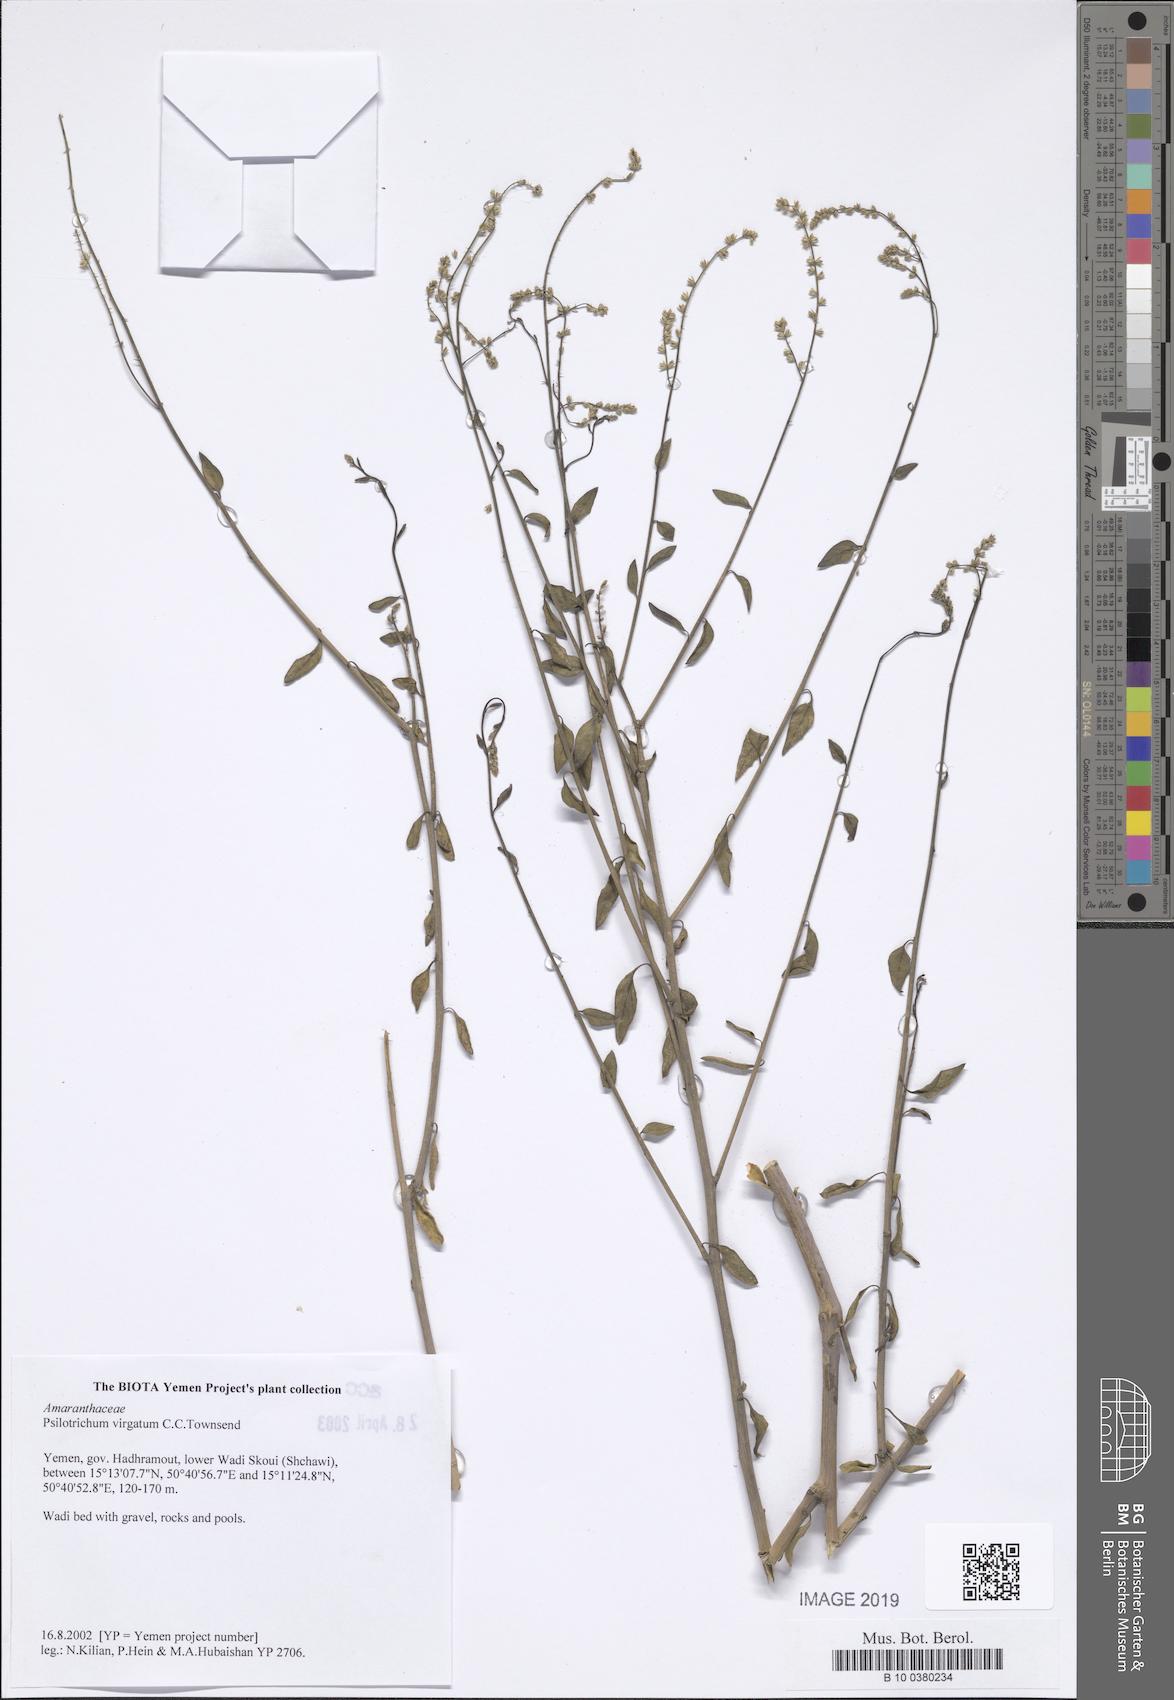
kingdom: Plantae
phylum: Tracheophyta
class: Magnoliopsida
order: Caryophyllales
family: Amaranthaceae
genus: Psilotrichum
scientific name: Psilotrichum virgatum
